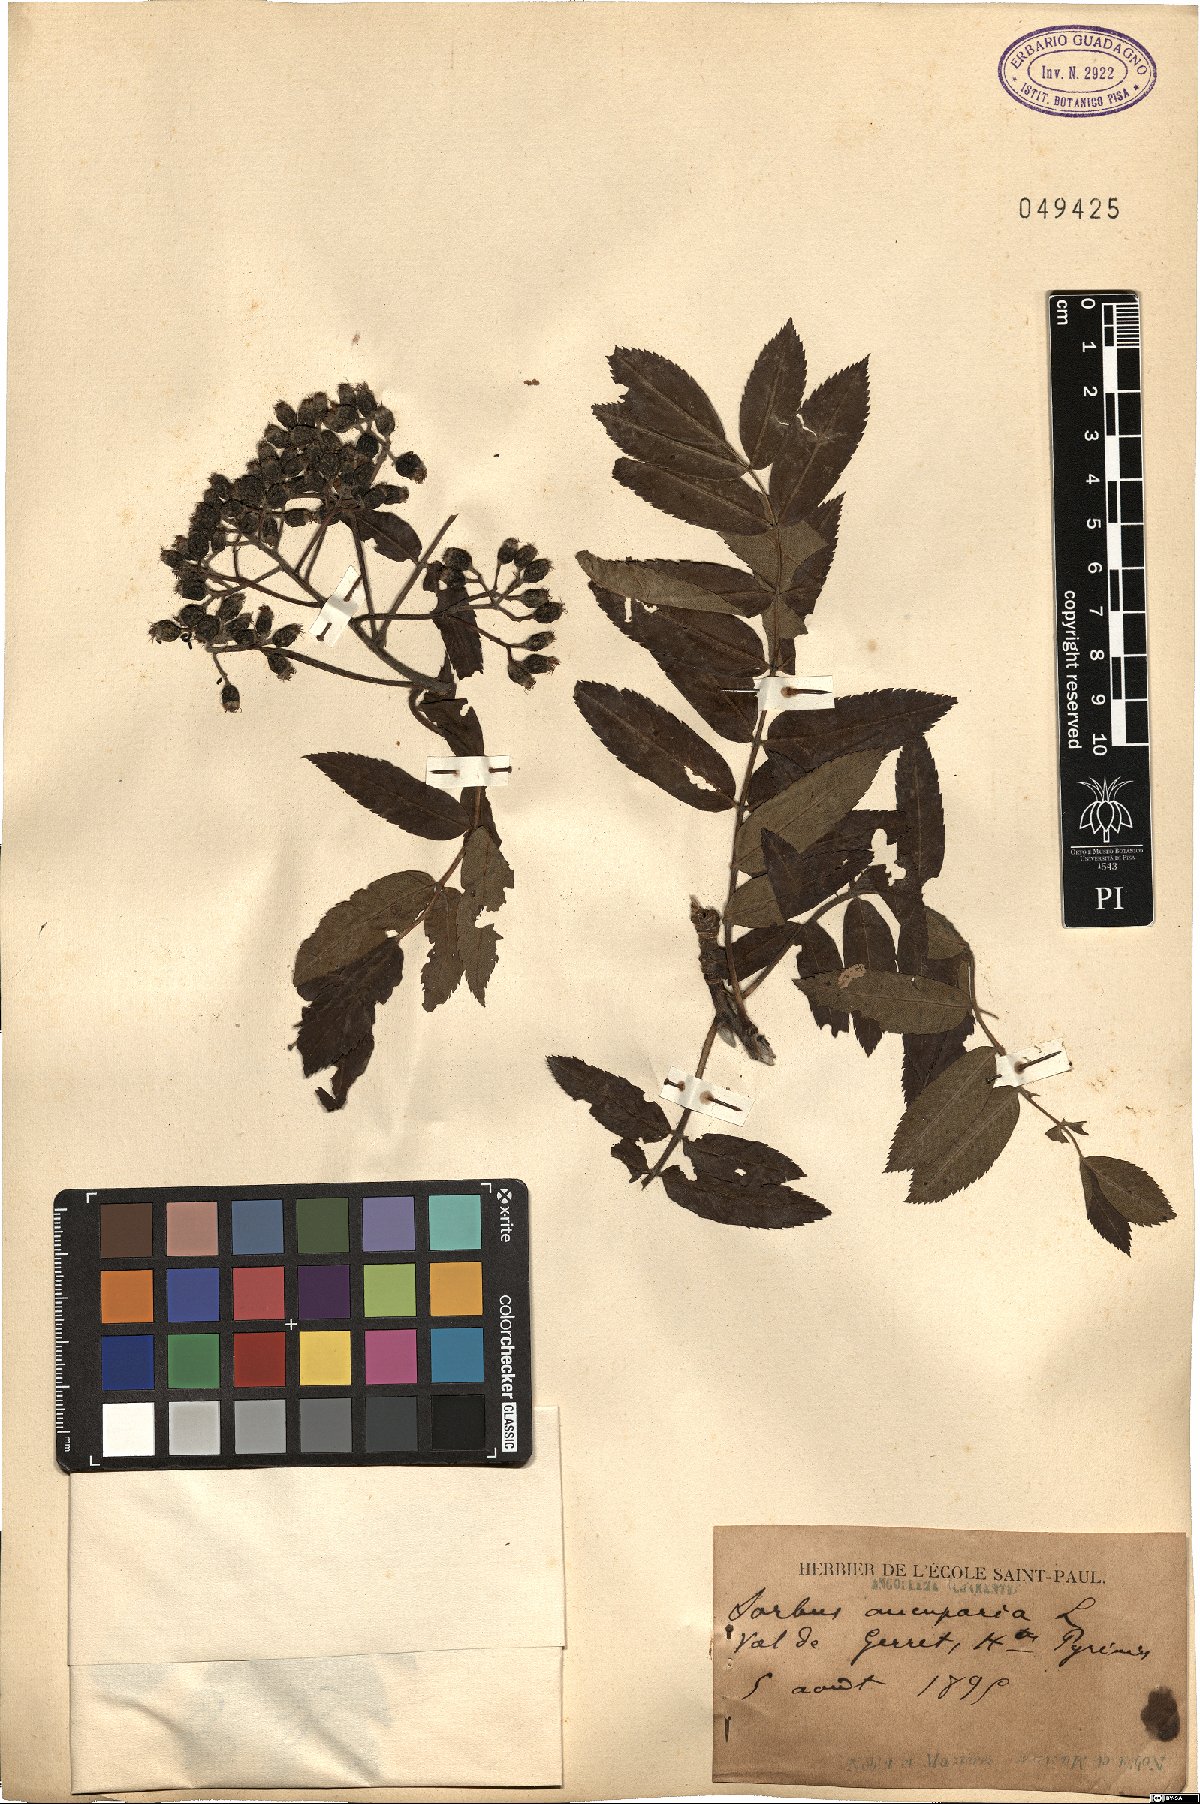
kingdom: Plantae
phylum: Tracheophyta
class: Magnoliopsida
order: Rosales
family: Rosaceae
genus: Sorbus
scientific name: Sorbus aucuparia
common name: Rowan
